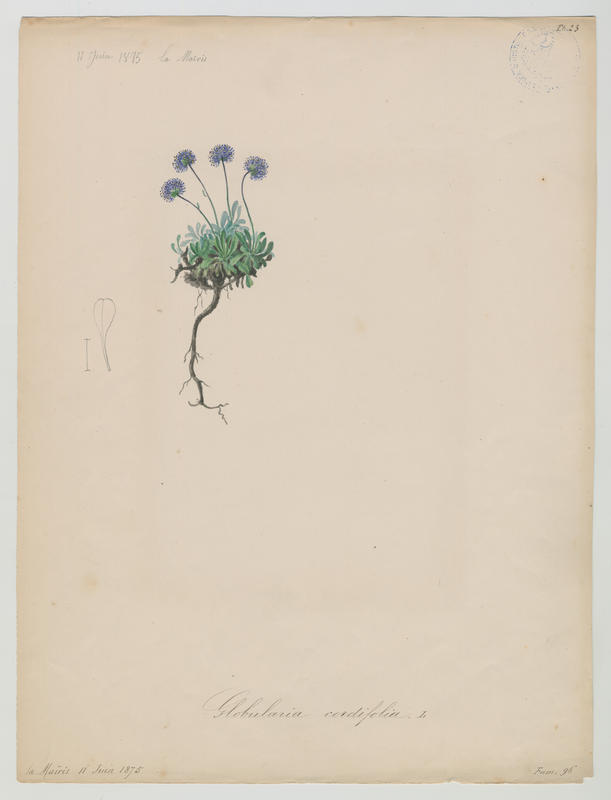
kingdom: Plantae
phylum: Tracheophyta
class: Magnoliopsida
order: Lamiales
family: Plantaginaceae
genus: Globularia
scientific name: Globularia cordifolia
